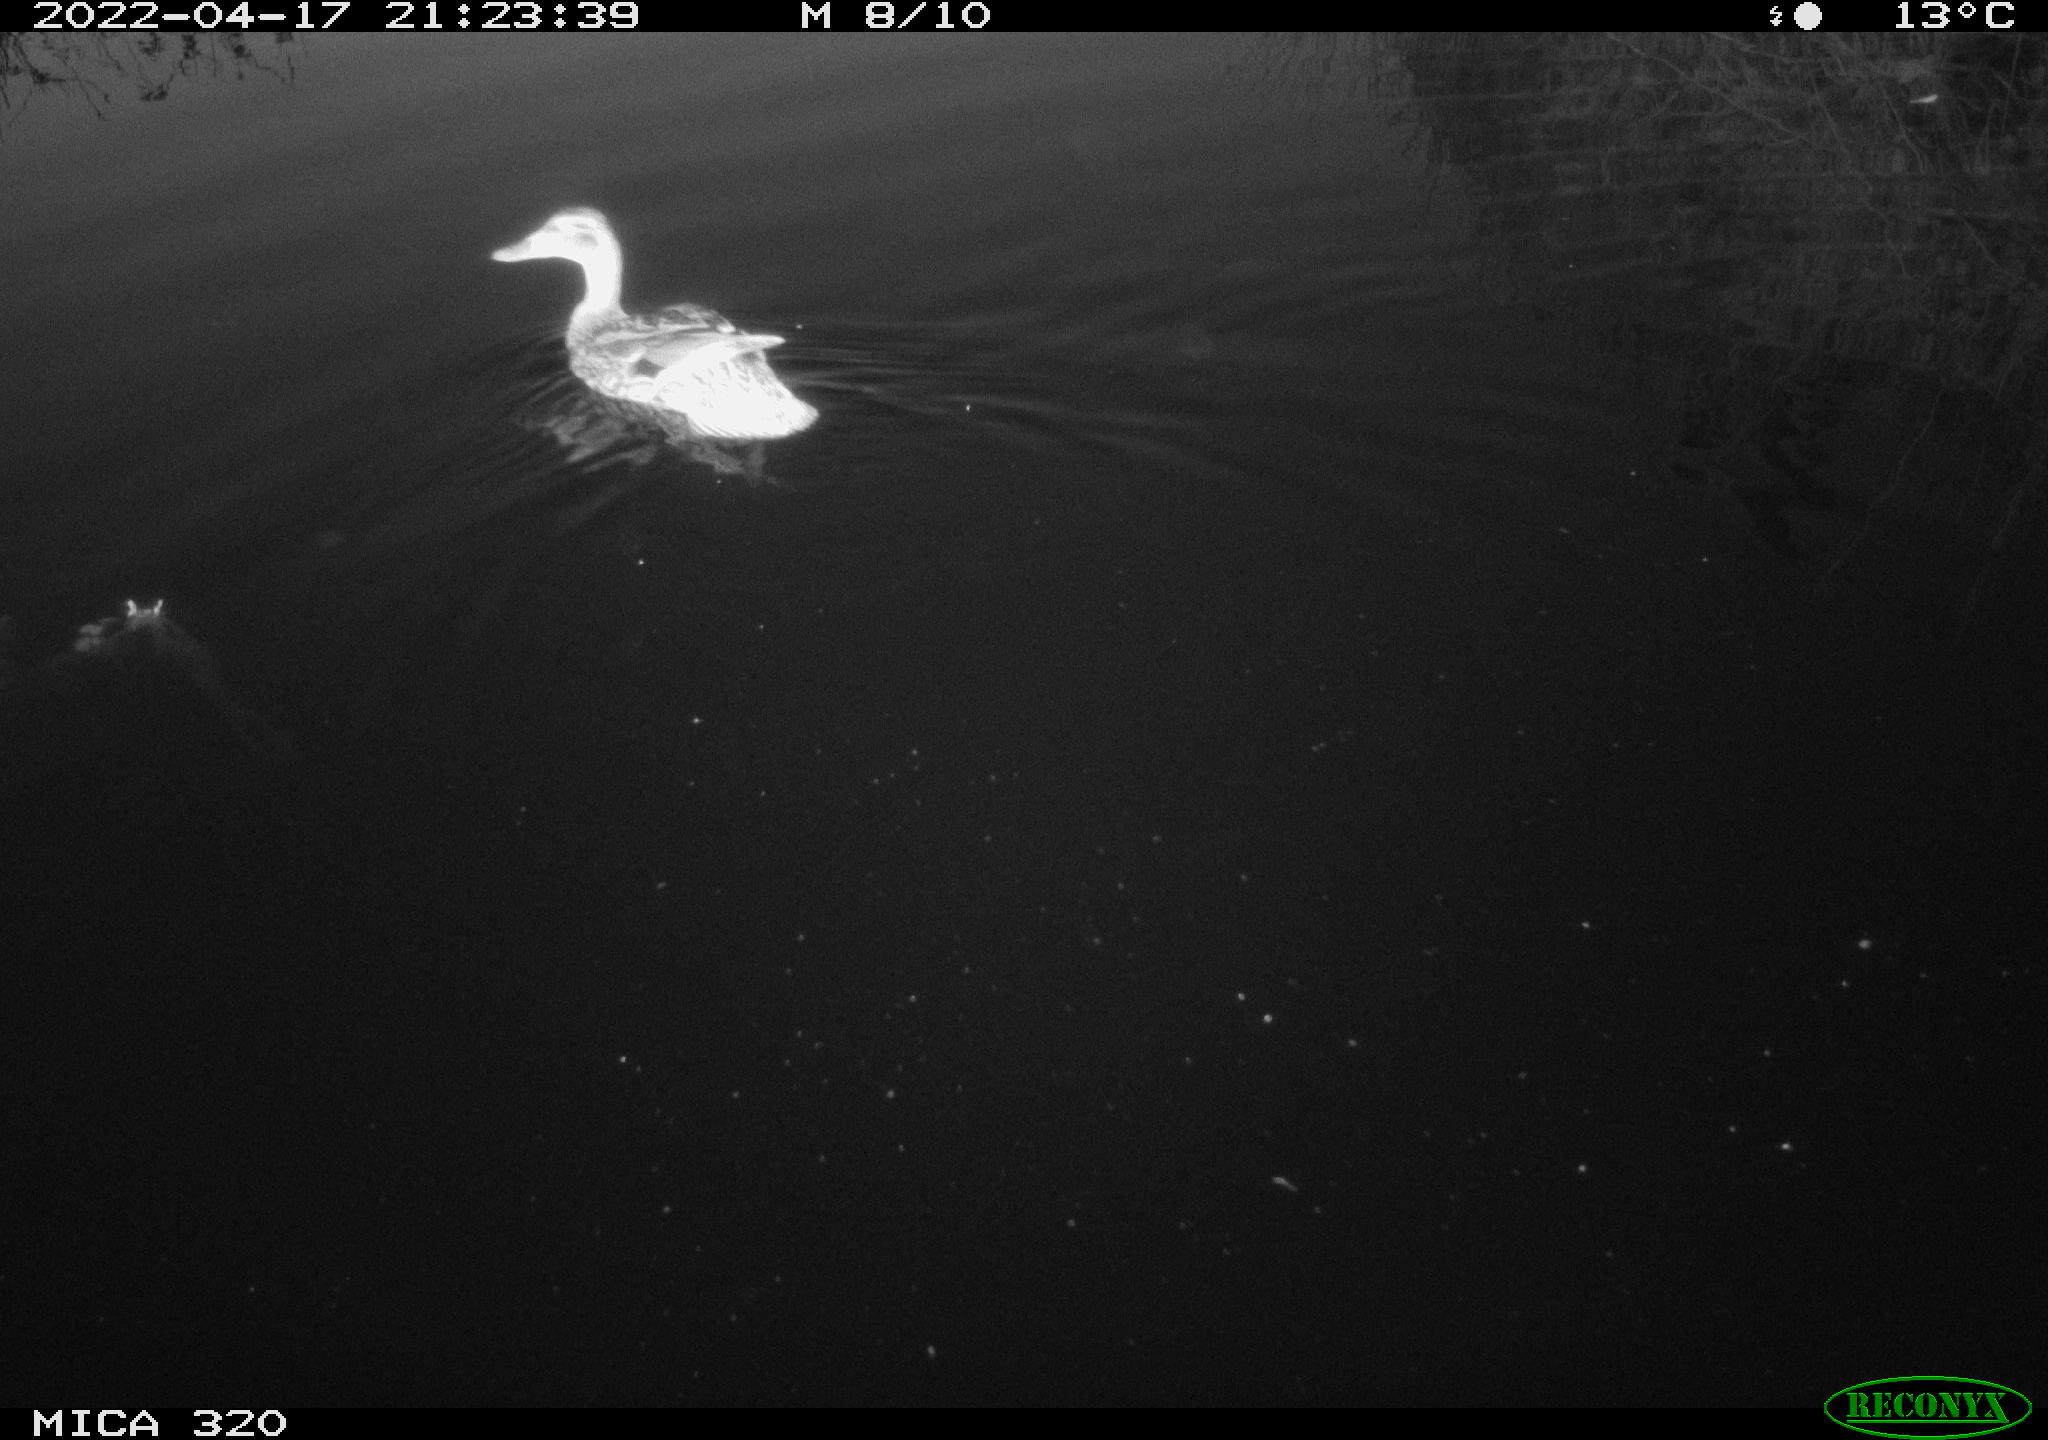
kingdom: Animalia
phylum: Chordata
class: Aves
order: Anseriformes
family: Anatidae
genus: Anas
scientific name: Anas platyrhynchos
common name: Mallard
